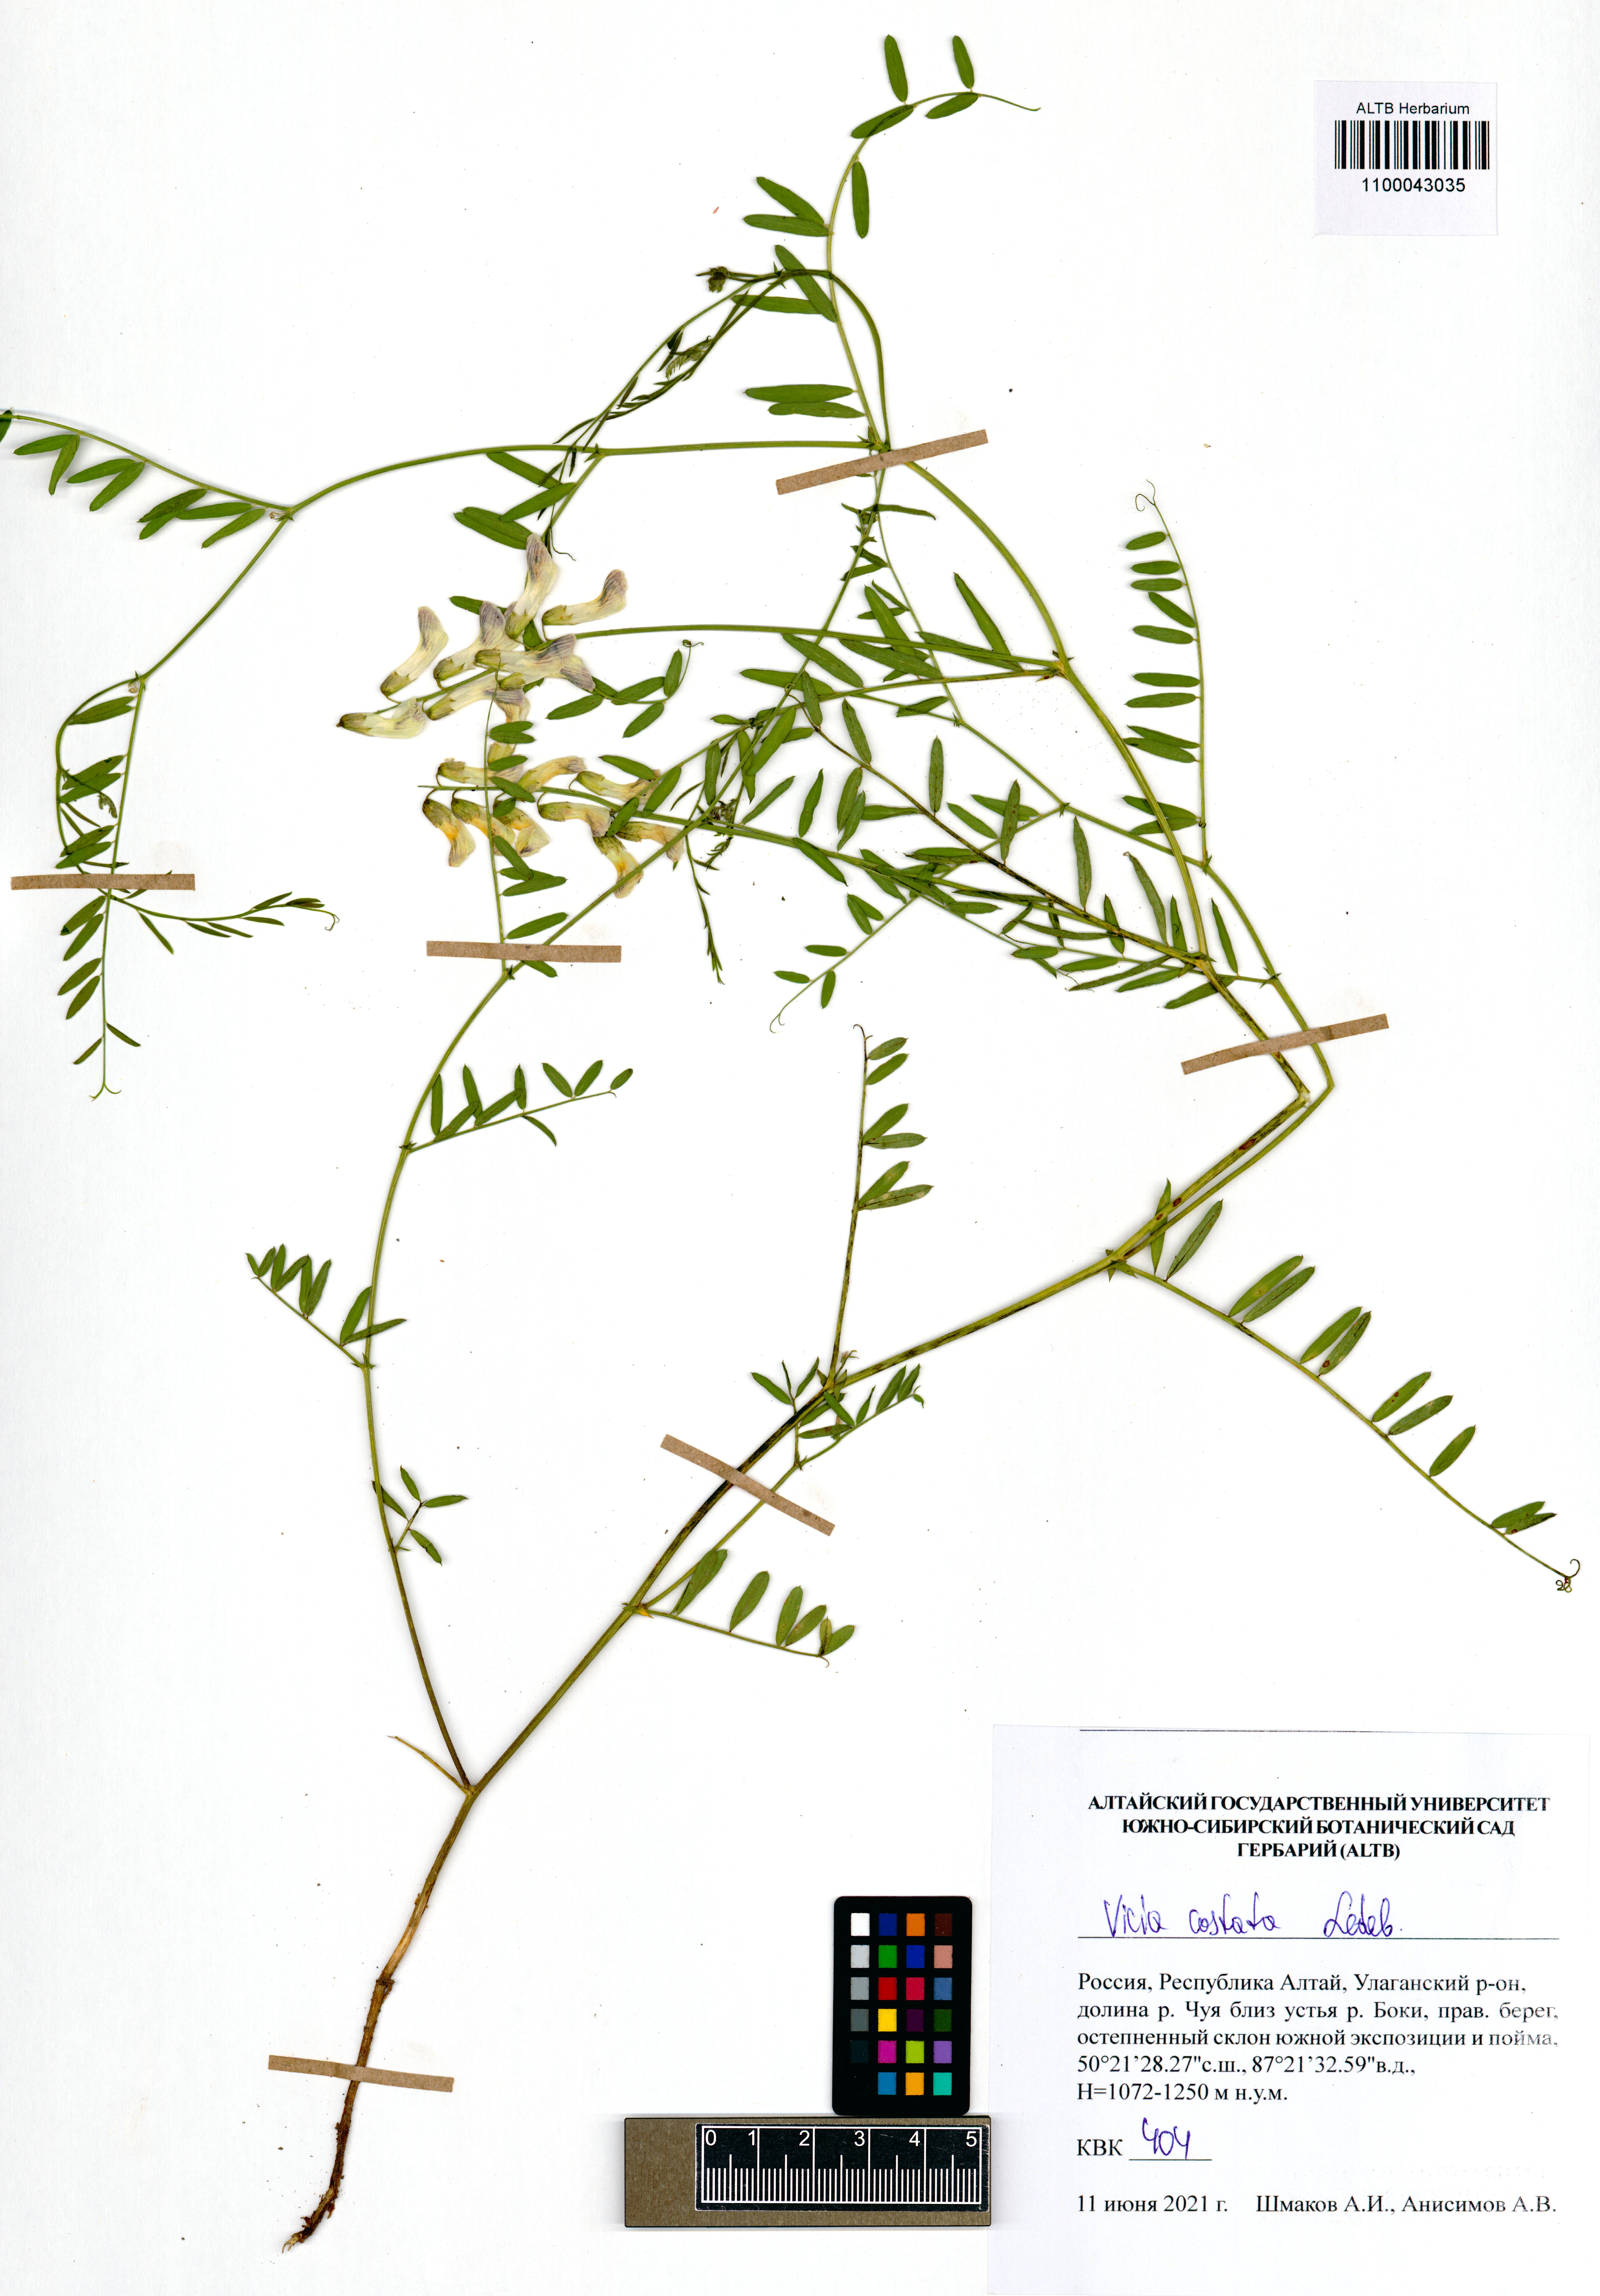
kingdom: Plantae
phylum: Tracheophyta
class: Magnoliopsida
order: Fabales
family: Fabaceae
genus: Vicia
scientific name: Vicia costata
